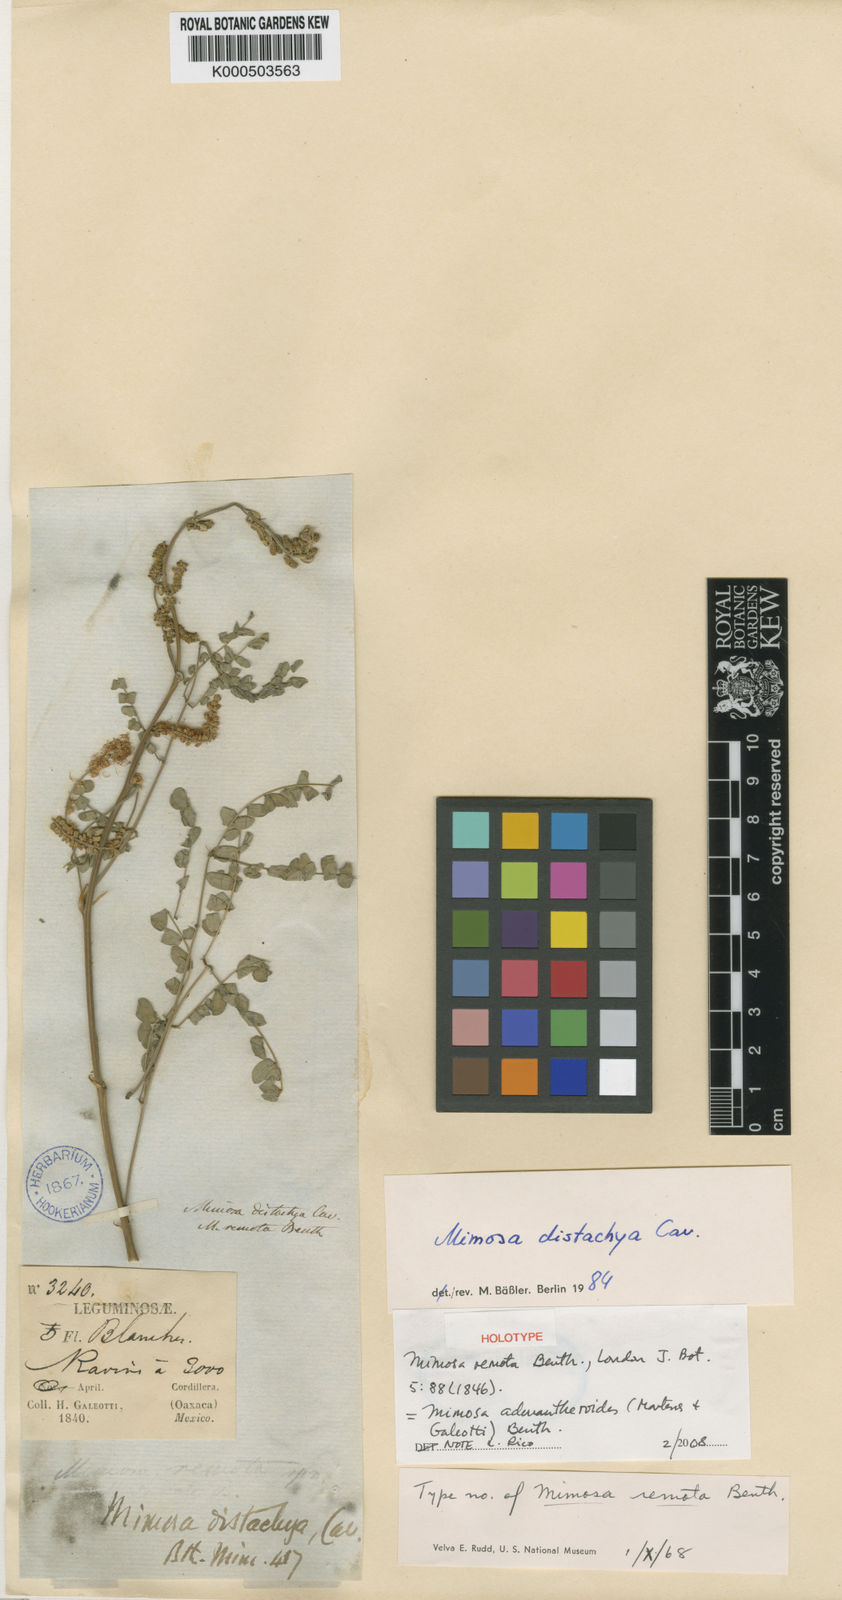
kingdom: Plantae
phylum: Tracheophyta
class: Magnoliopsida
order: Fabales
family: Fabaceae
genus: Mimosa
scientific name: Mimosa adenantheroides
